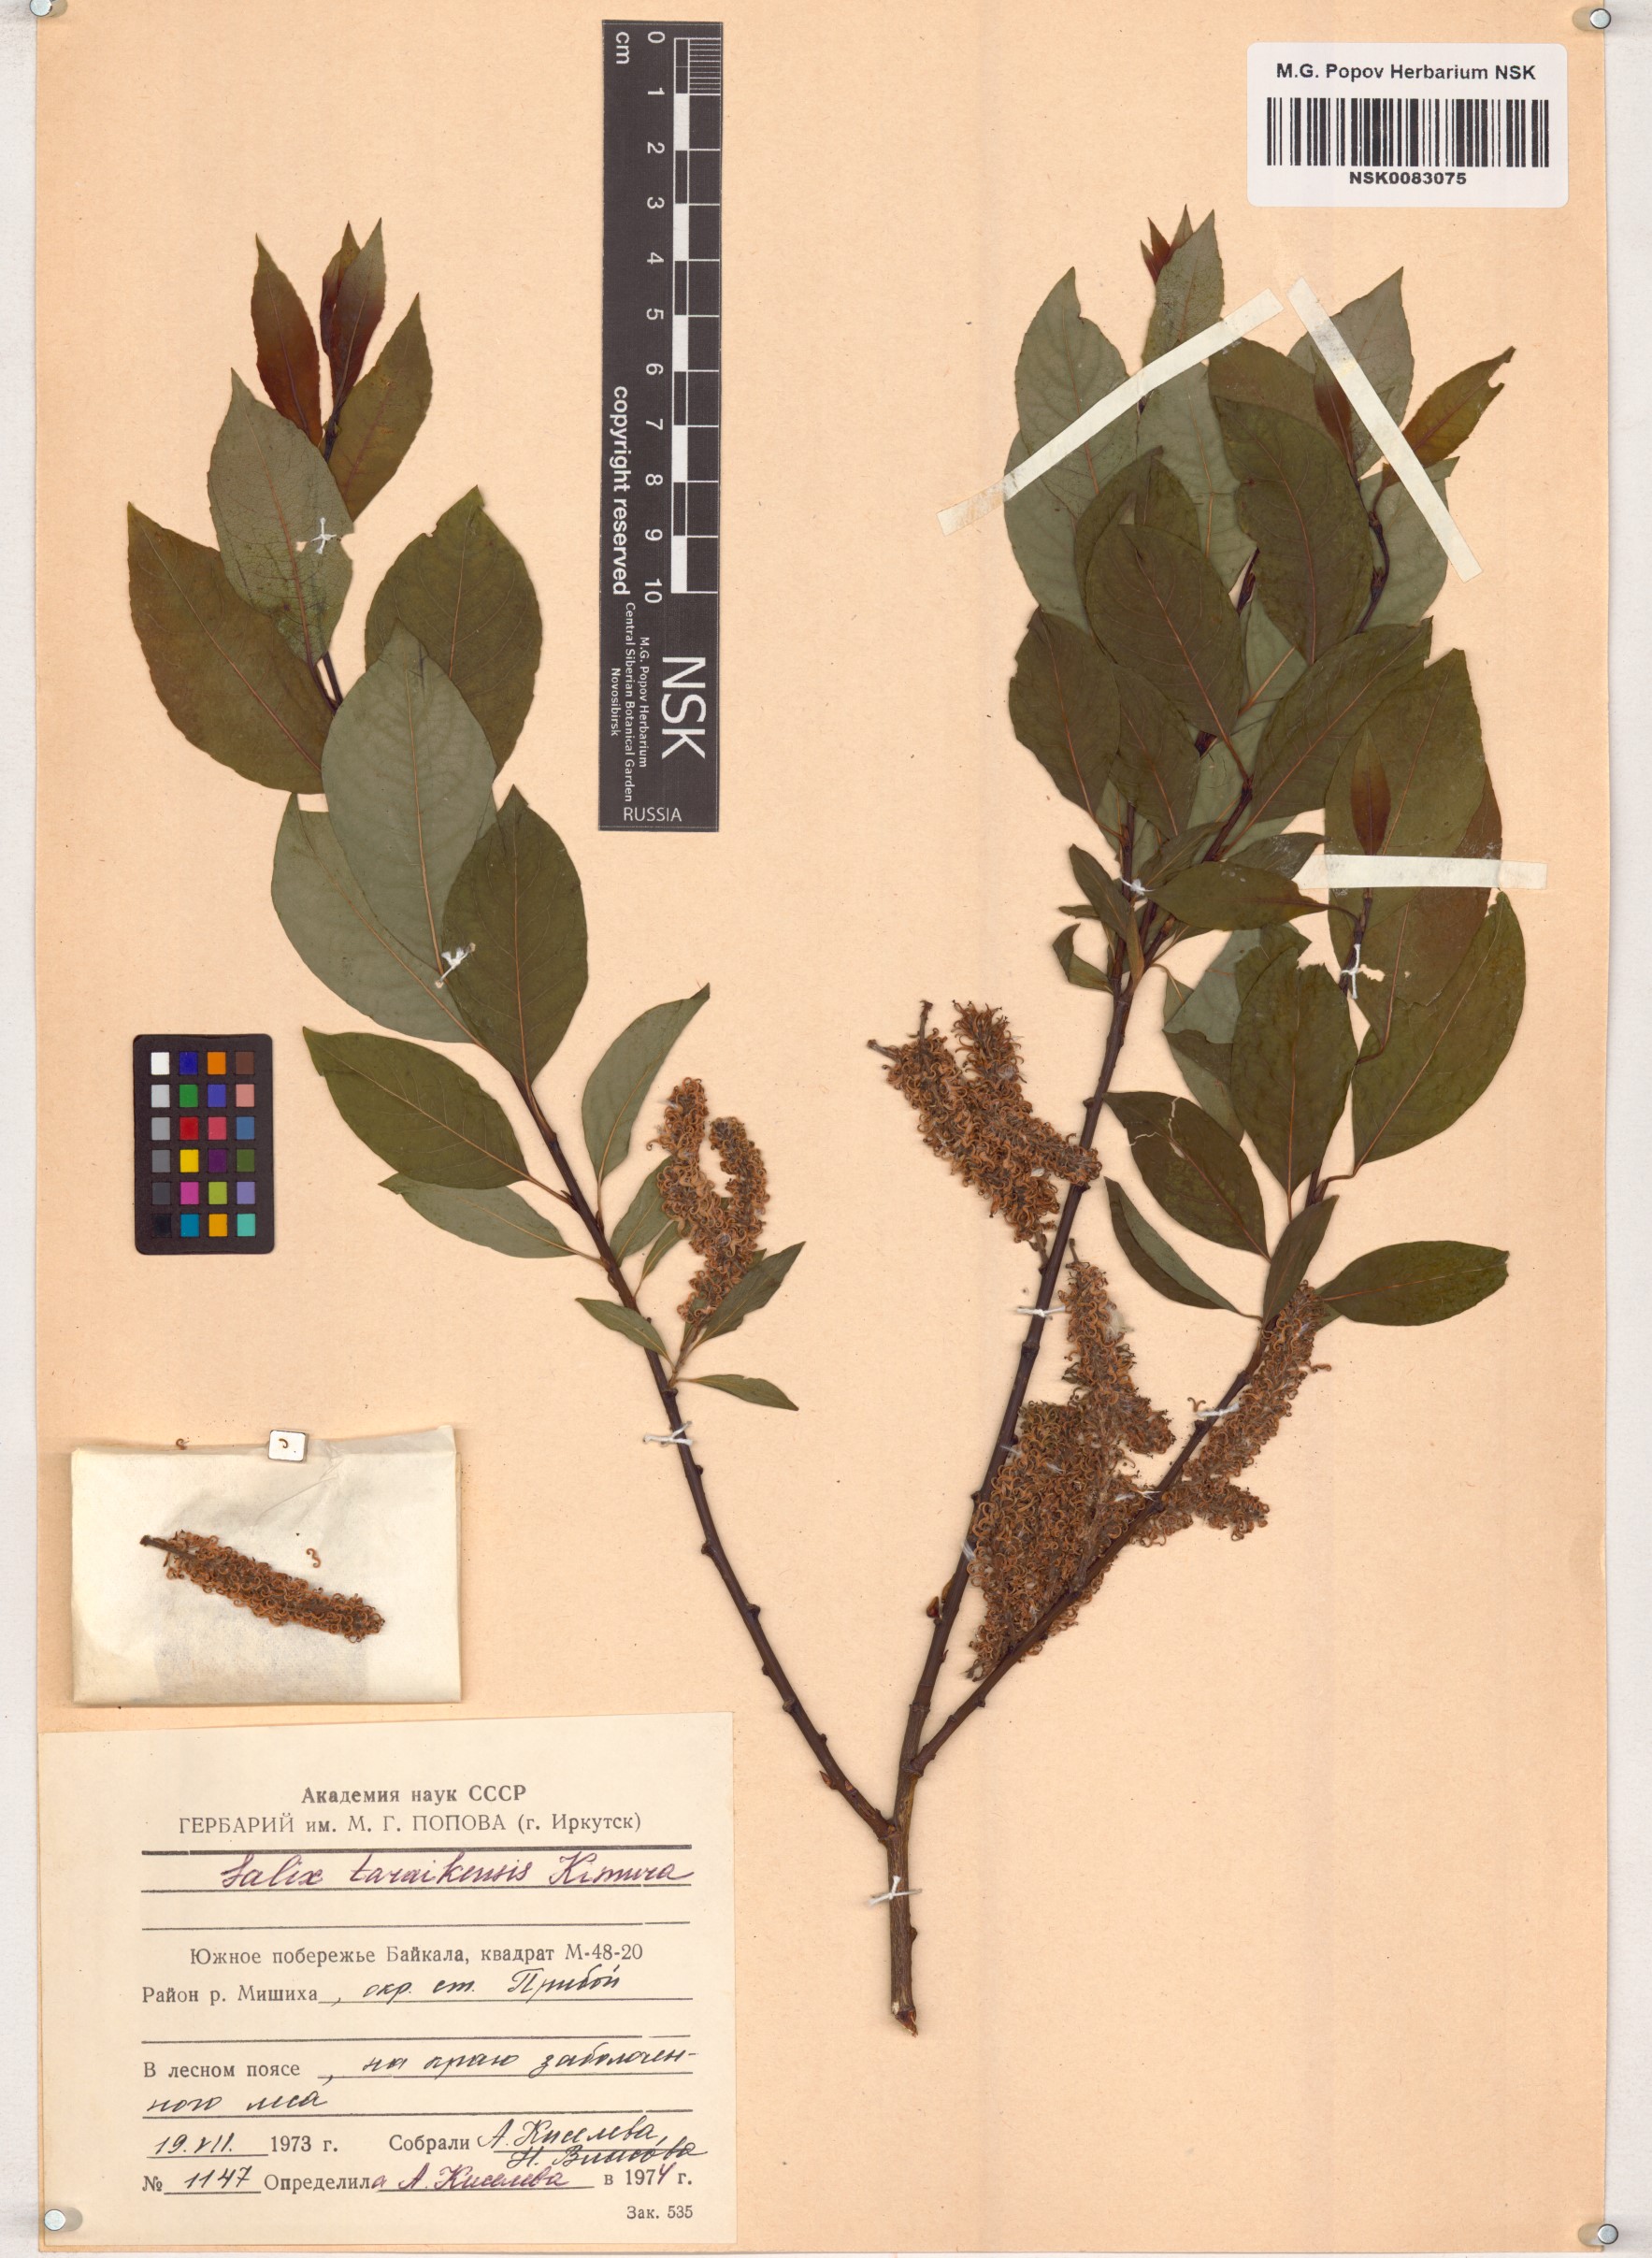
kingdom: Plantae
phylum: Tracheophyta
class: Magnoliopsida
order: Malpighiales
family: Salicaceae
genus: Salix
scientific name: Salix taraikensis
